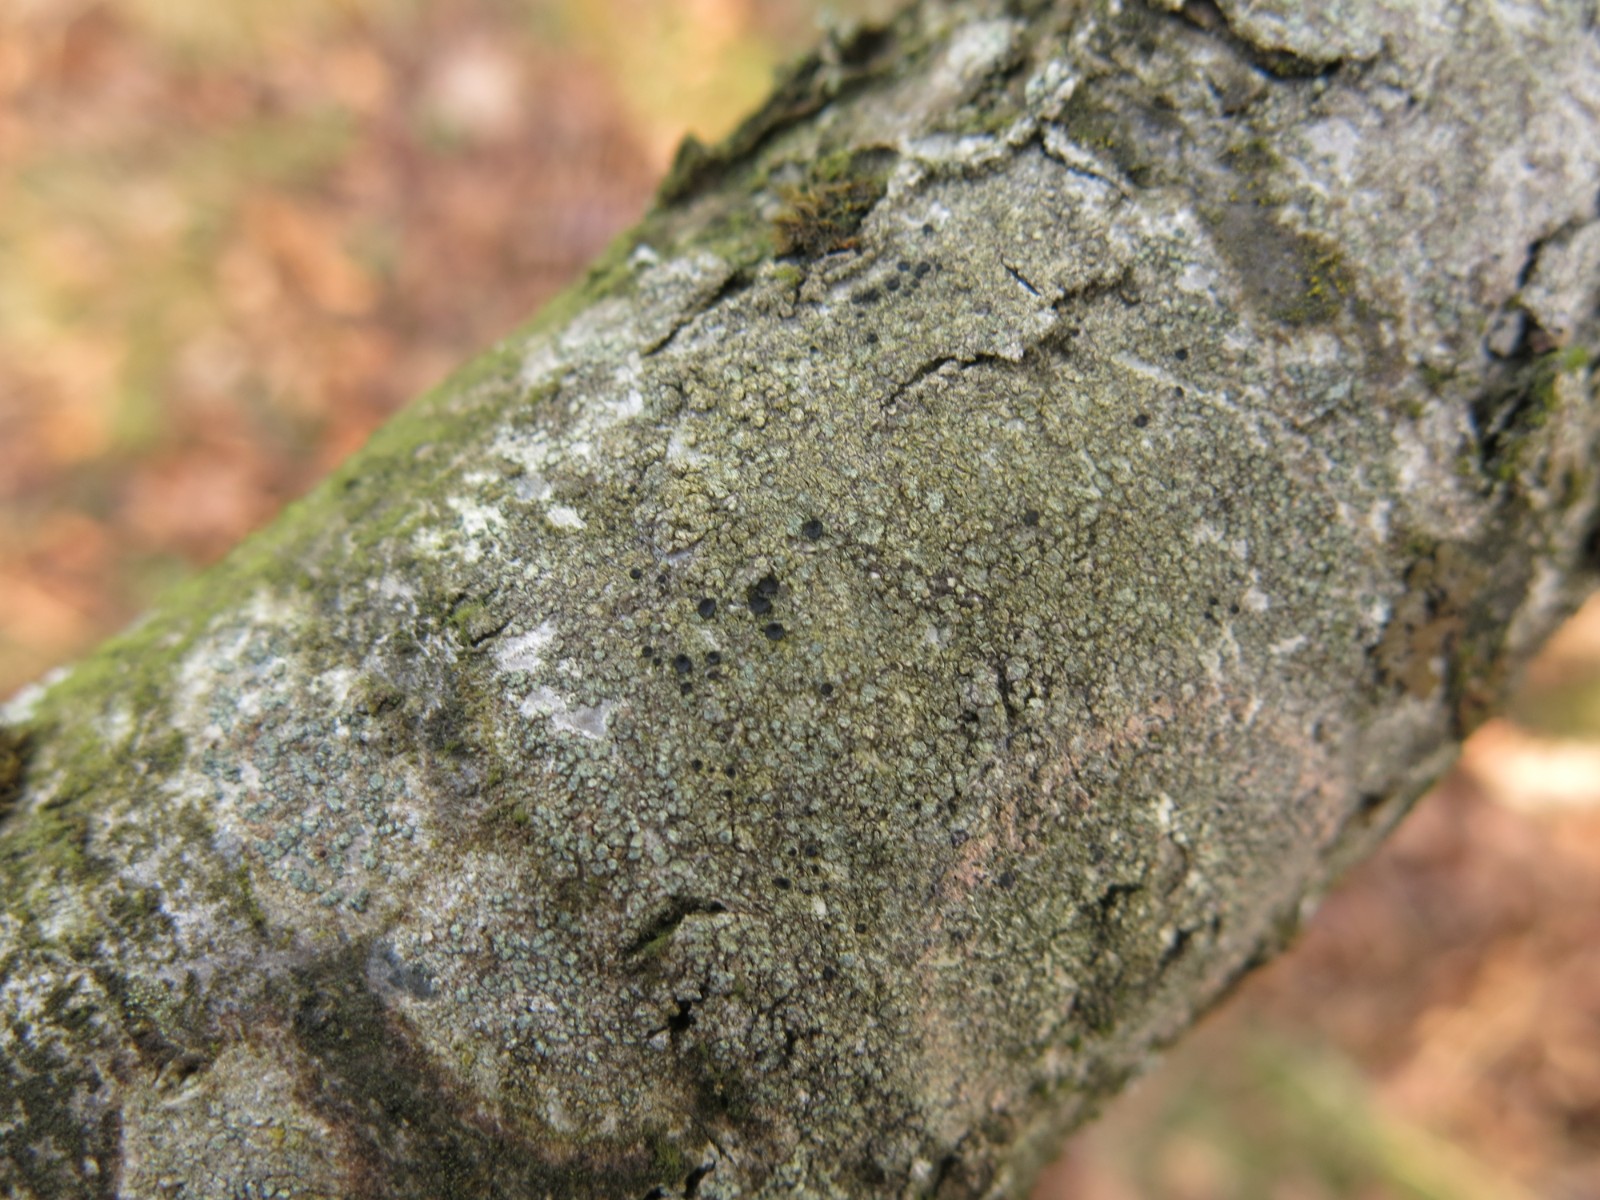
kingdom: Fungi
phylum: Ascomycota
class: Lecanoromycetes
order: Caliciales
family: Caliciaceae
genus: Buellia
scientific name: Buellia griseovirens
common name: grågrøn sortskivelav
